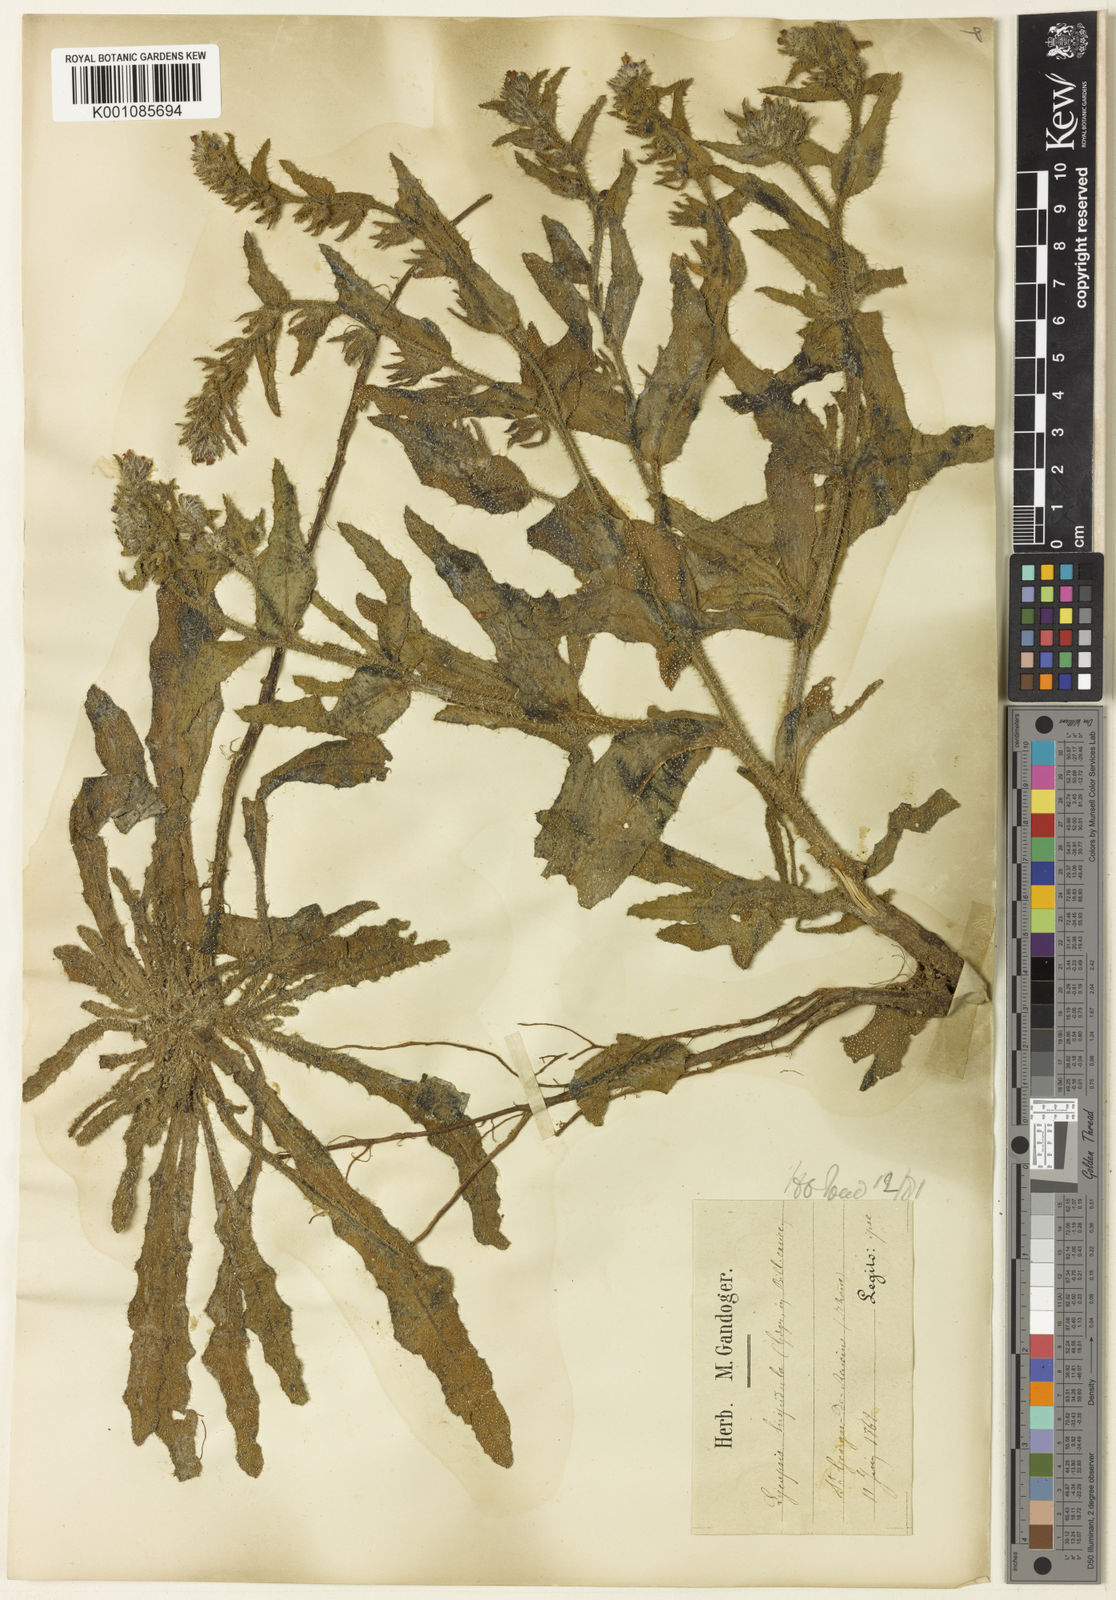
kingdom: Plantae
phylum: Tracheophyta
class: Magnoliopsida
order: Boraginales
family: Boraginaceae
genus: Anchusa
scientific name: Anchusa
